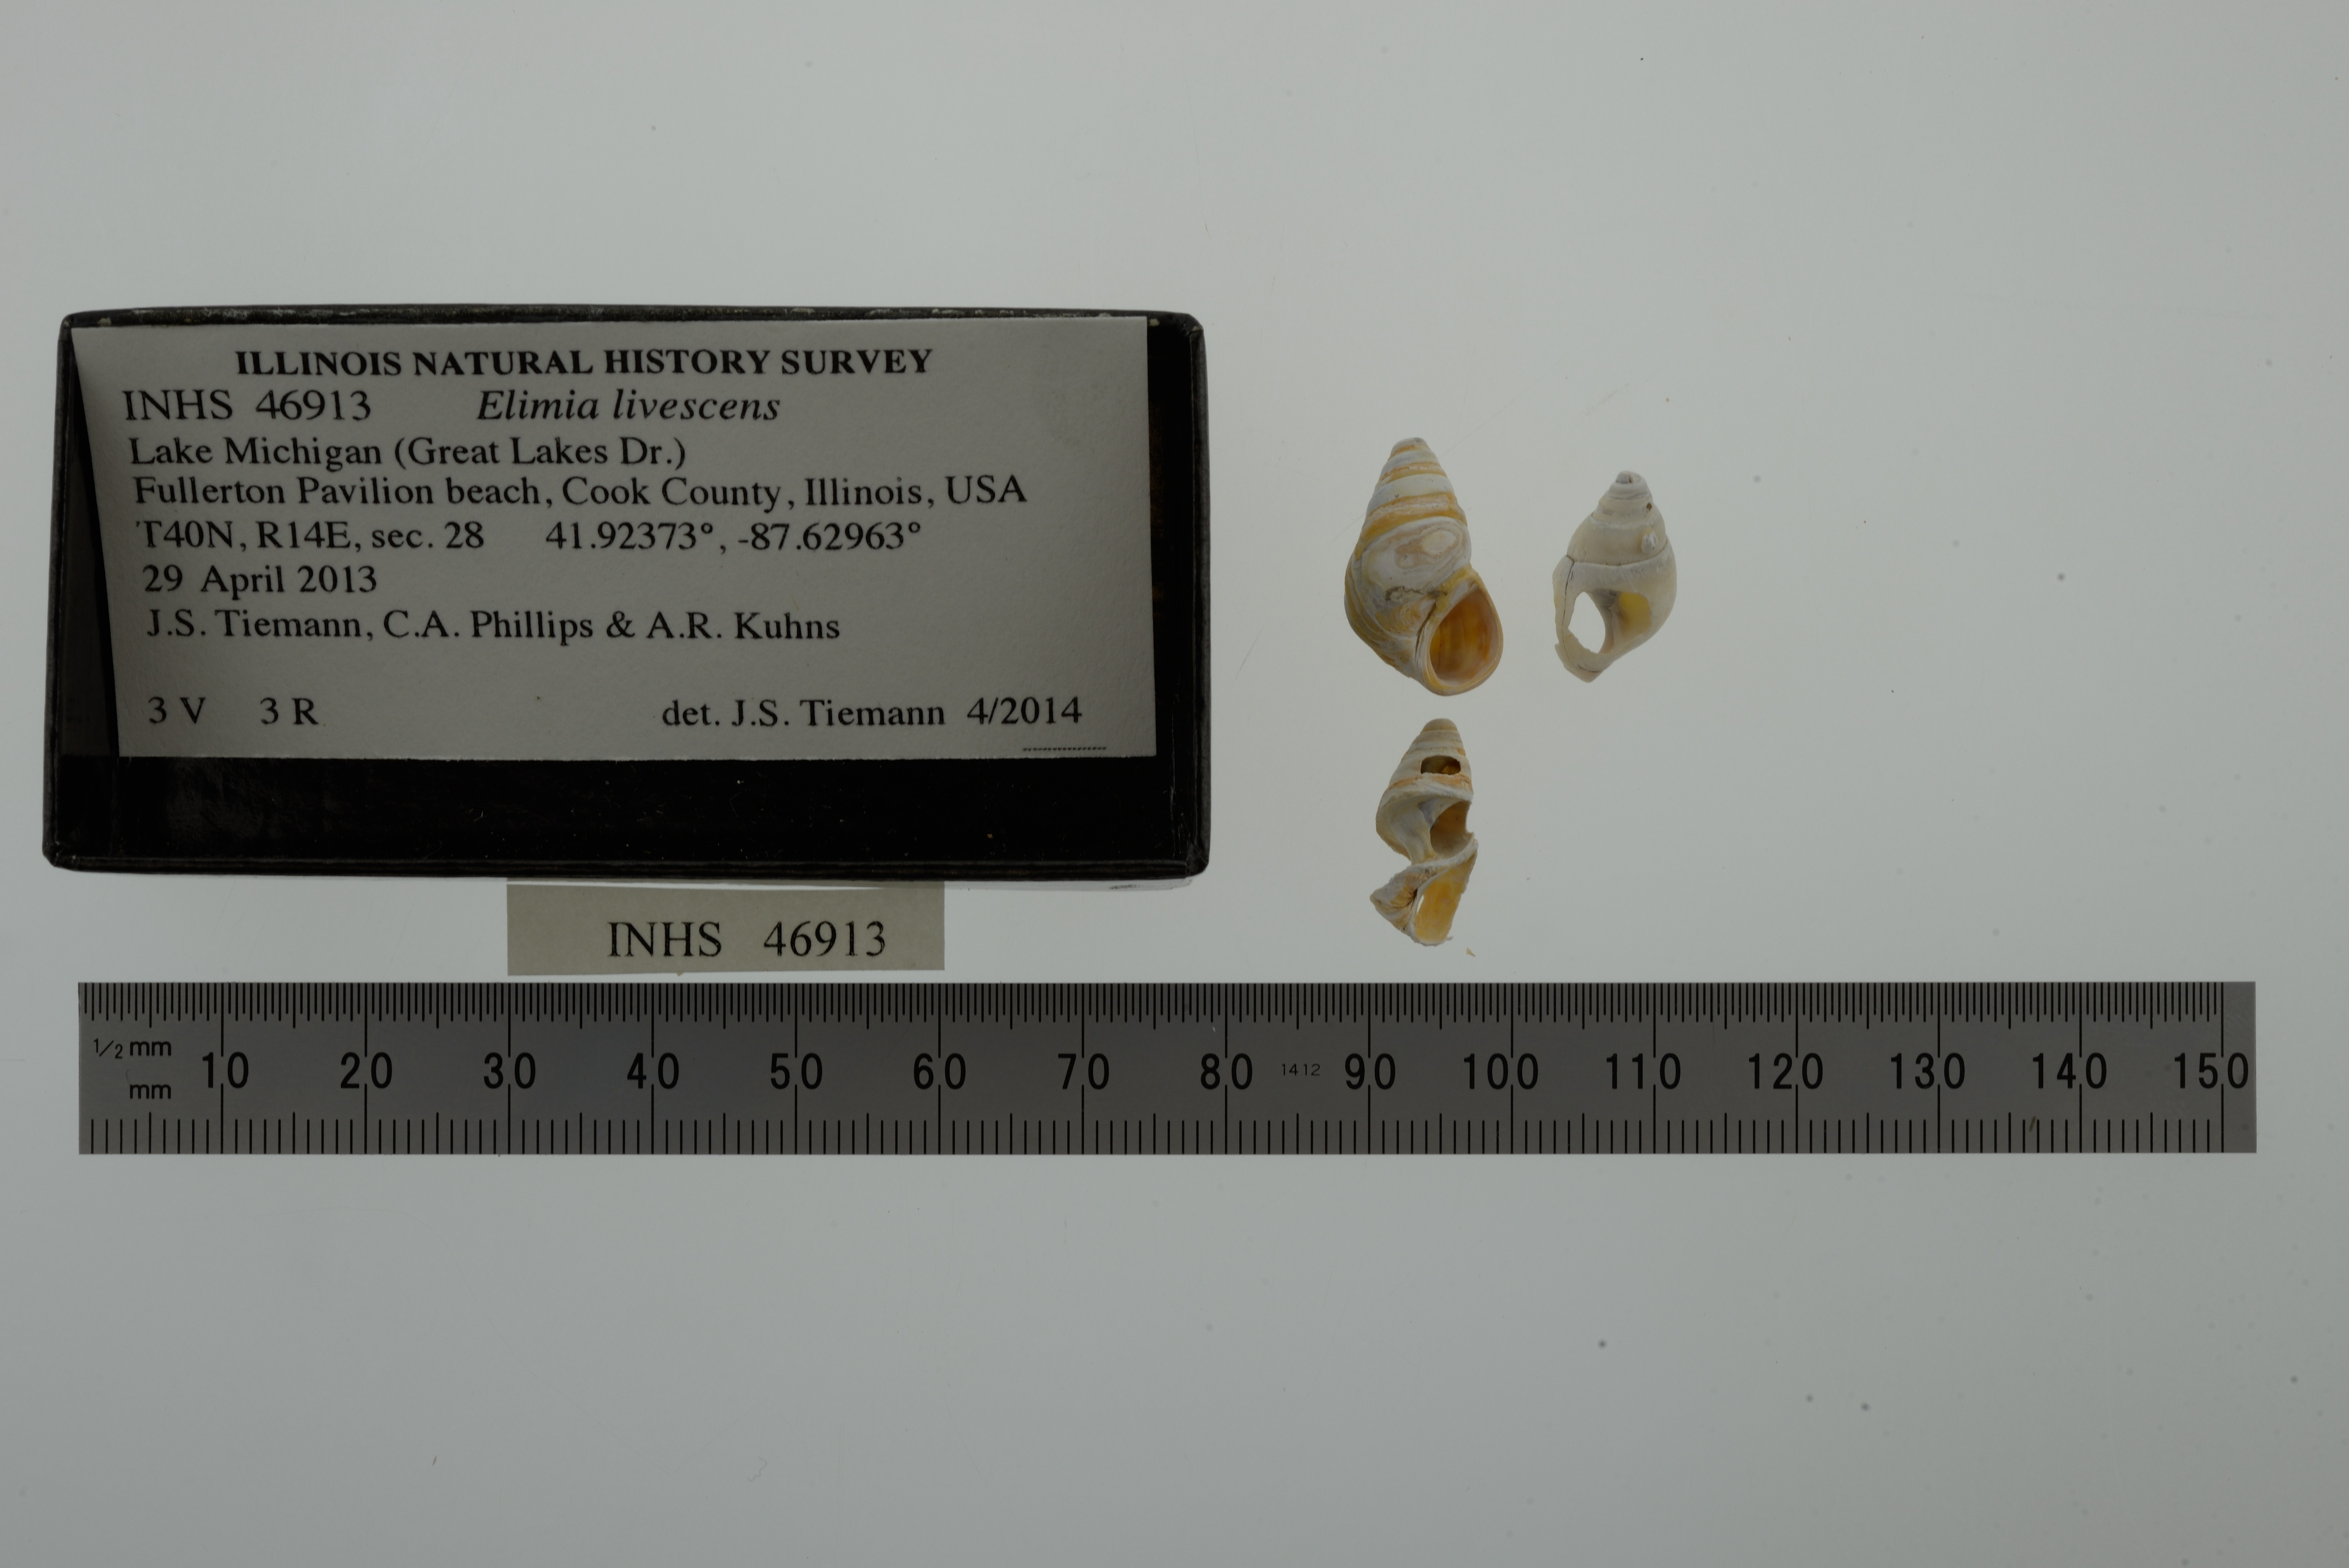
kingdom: Animalia
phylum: Mollusca
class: Gastropoda
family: Pleuroceridae
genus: Elimia
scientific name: Elimia livescens
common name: Liver elimia
